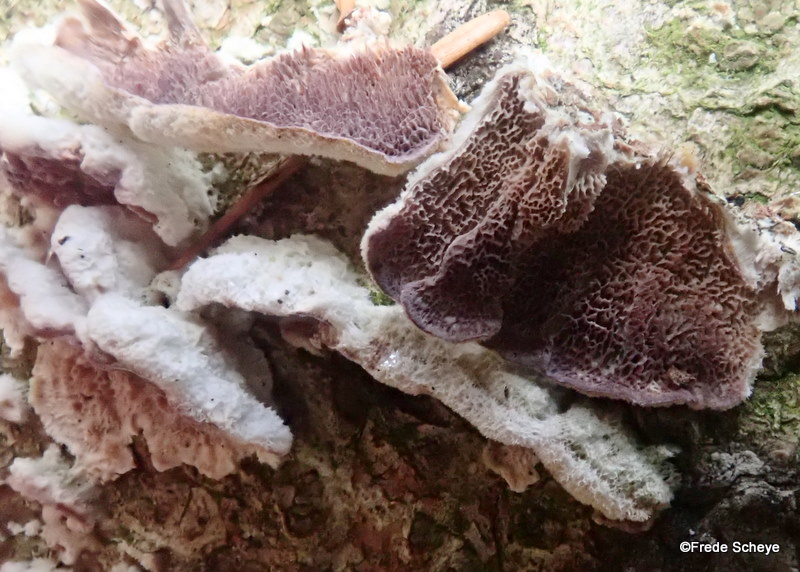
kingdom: Fungi
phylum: Basidiomycota
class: Agaricomycetes
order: Hymenochaetales
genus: Trichaptum
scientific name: Trichaptum abietinum
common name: almindelig violporesvamp
